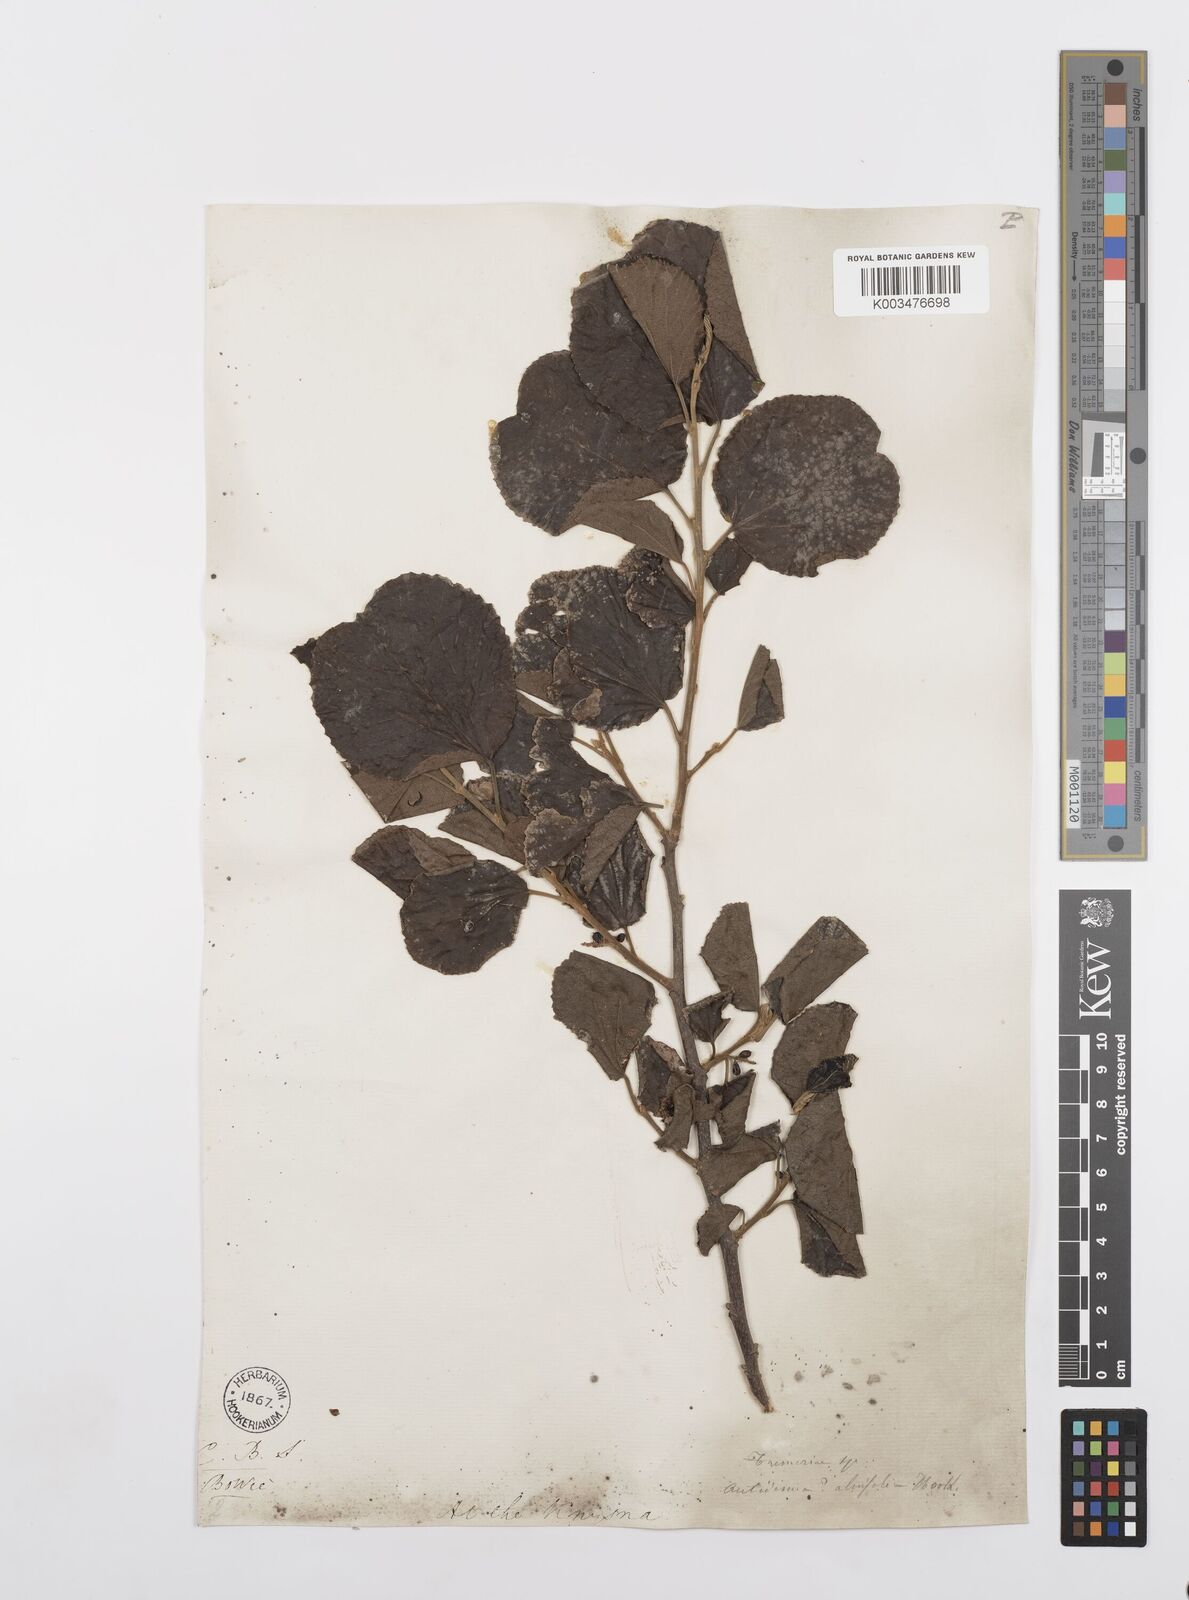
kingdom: Plantae
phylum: Tracheophyta
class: Magnoliopsida
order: Malpighiales
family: Salicaceae
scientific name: Salicaceae
